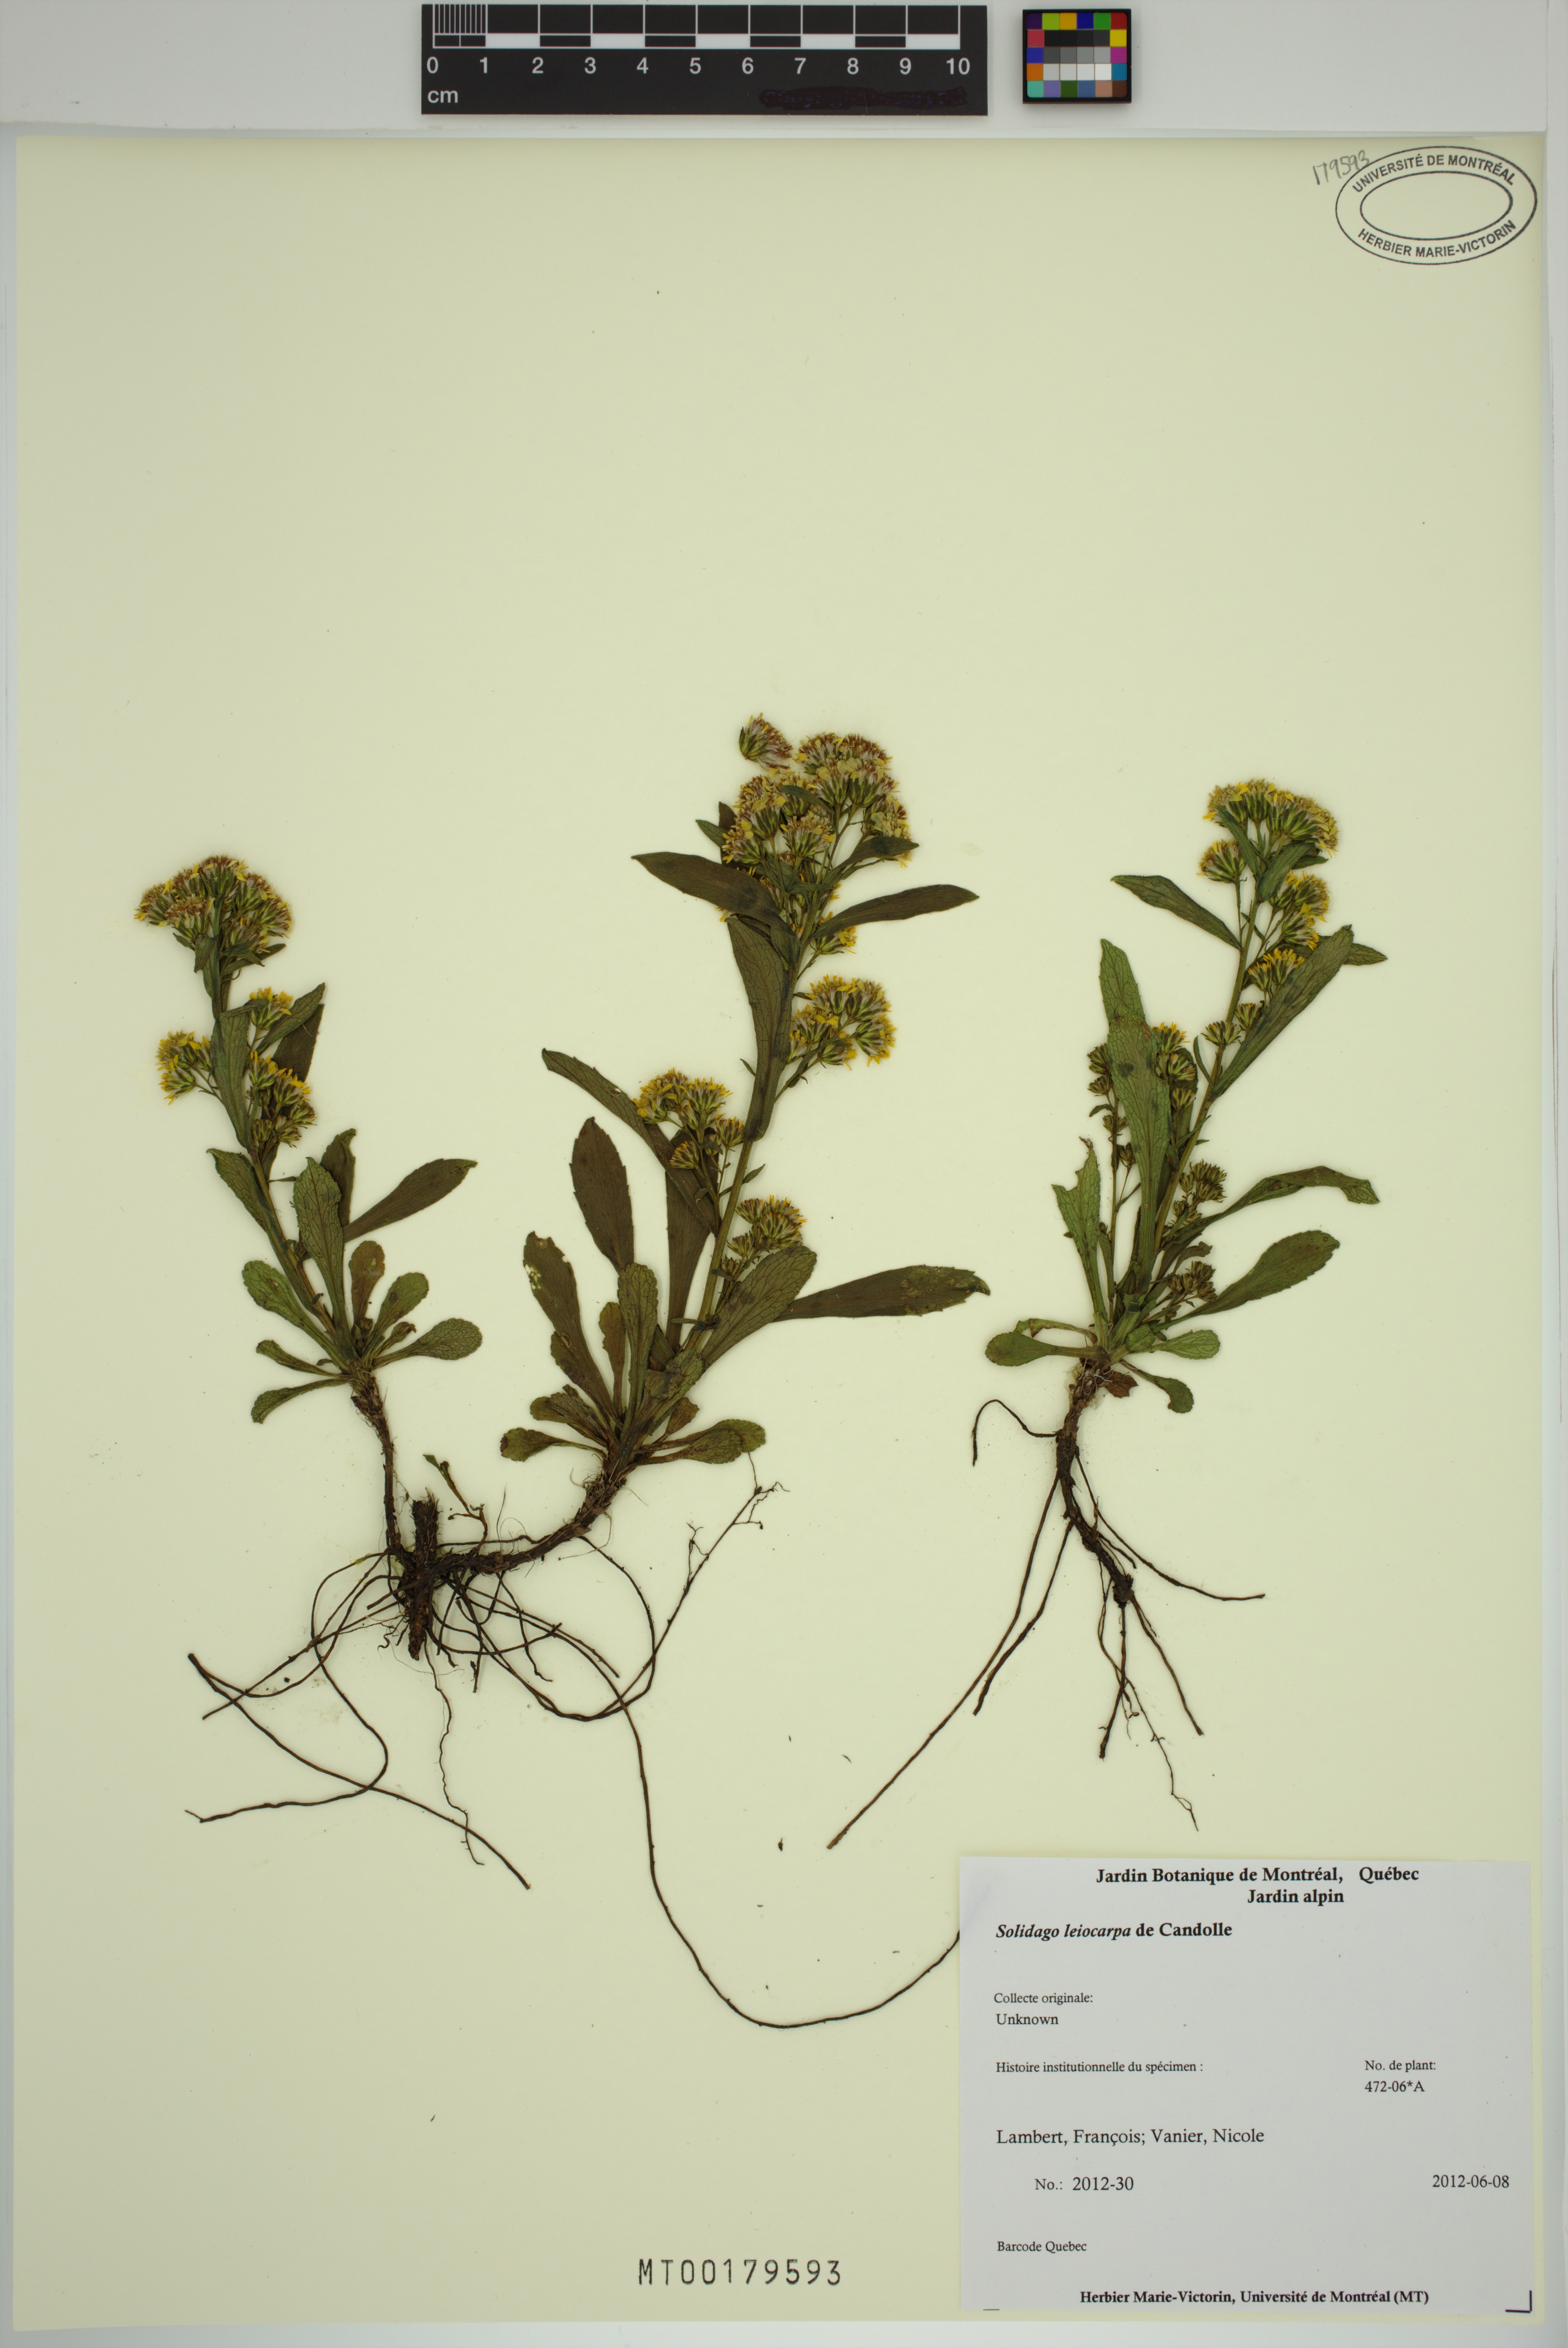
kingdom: Plantae
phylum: Tracheophyta
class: Magnoliopsida
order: Asterales
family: Asteraceae
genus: Solidago
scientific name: Solidago leiocarpa
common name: Cutler's alpine goldenrod
